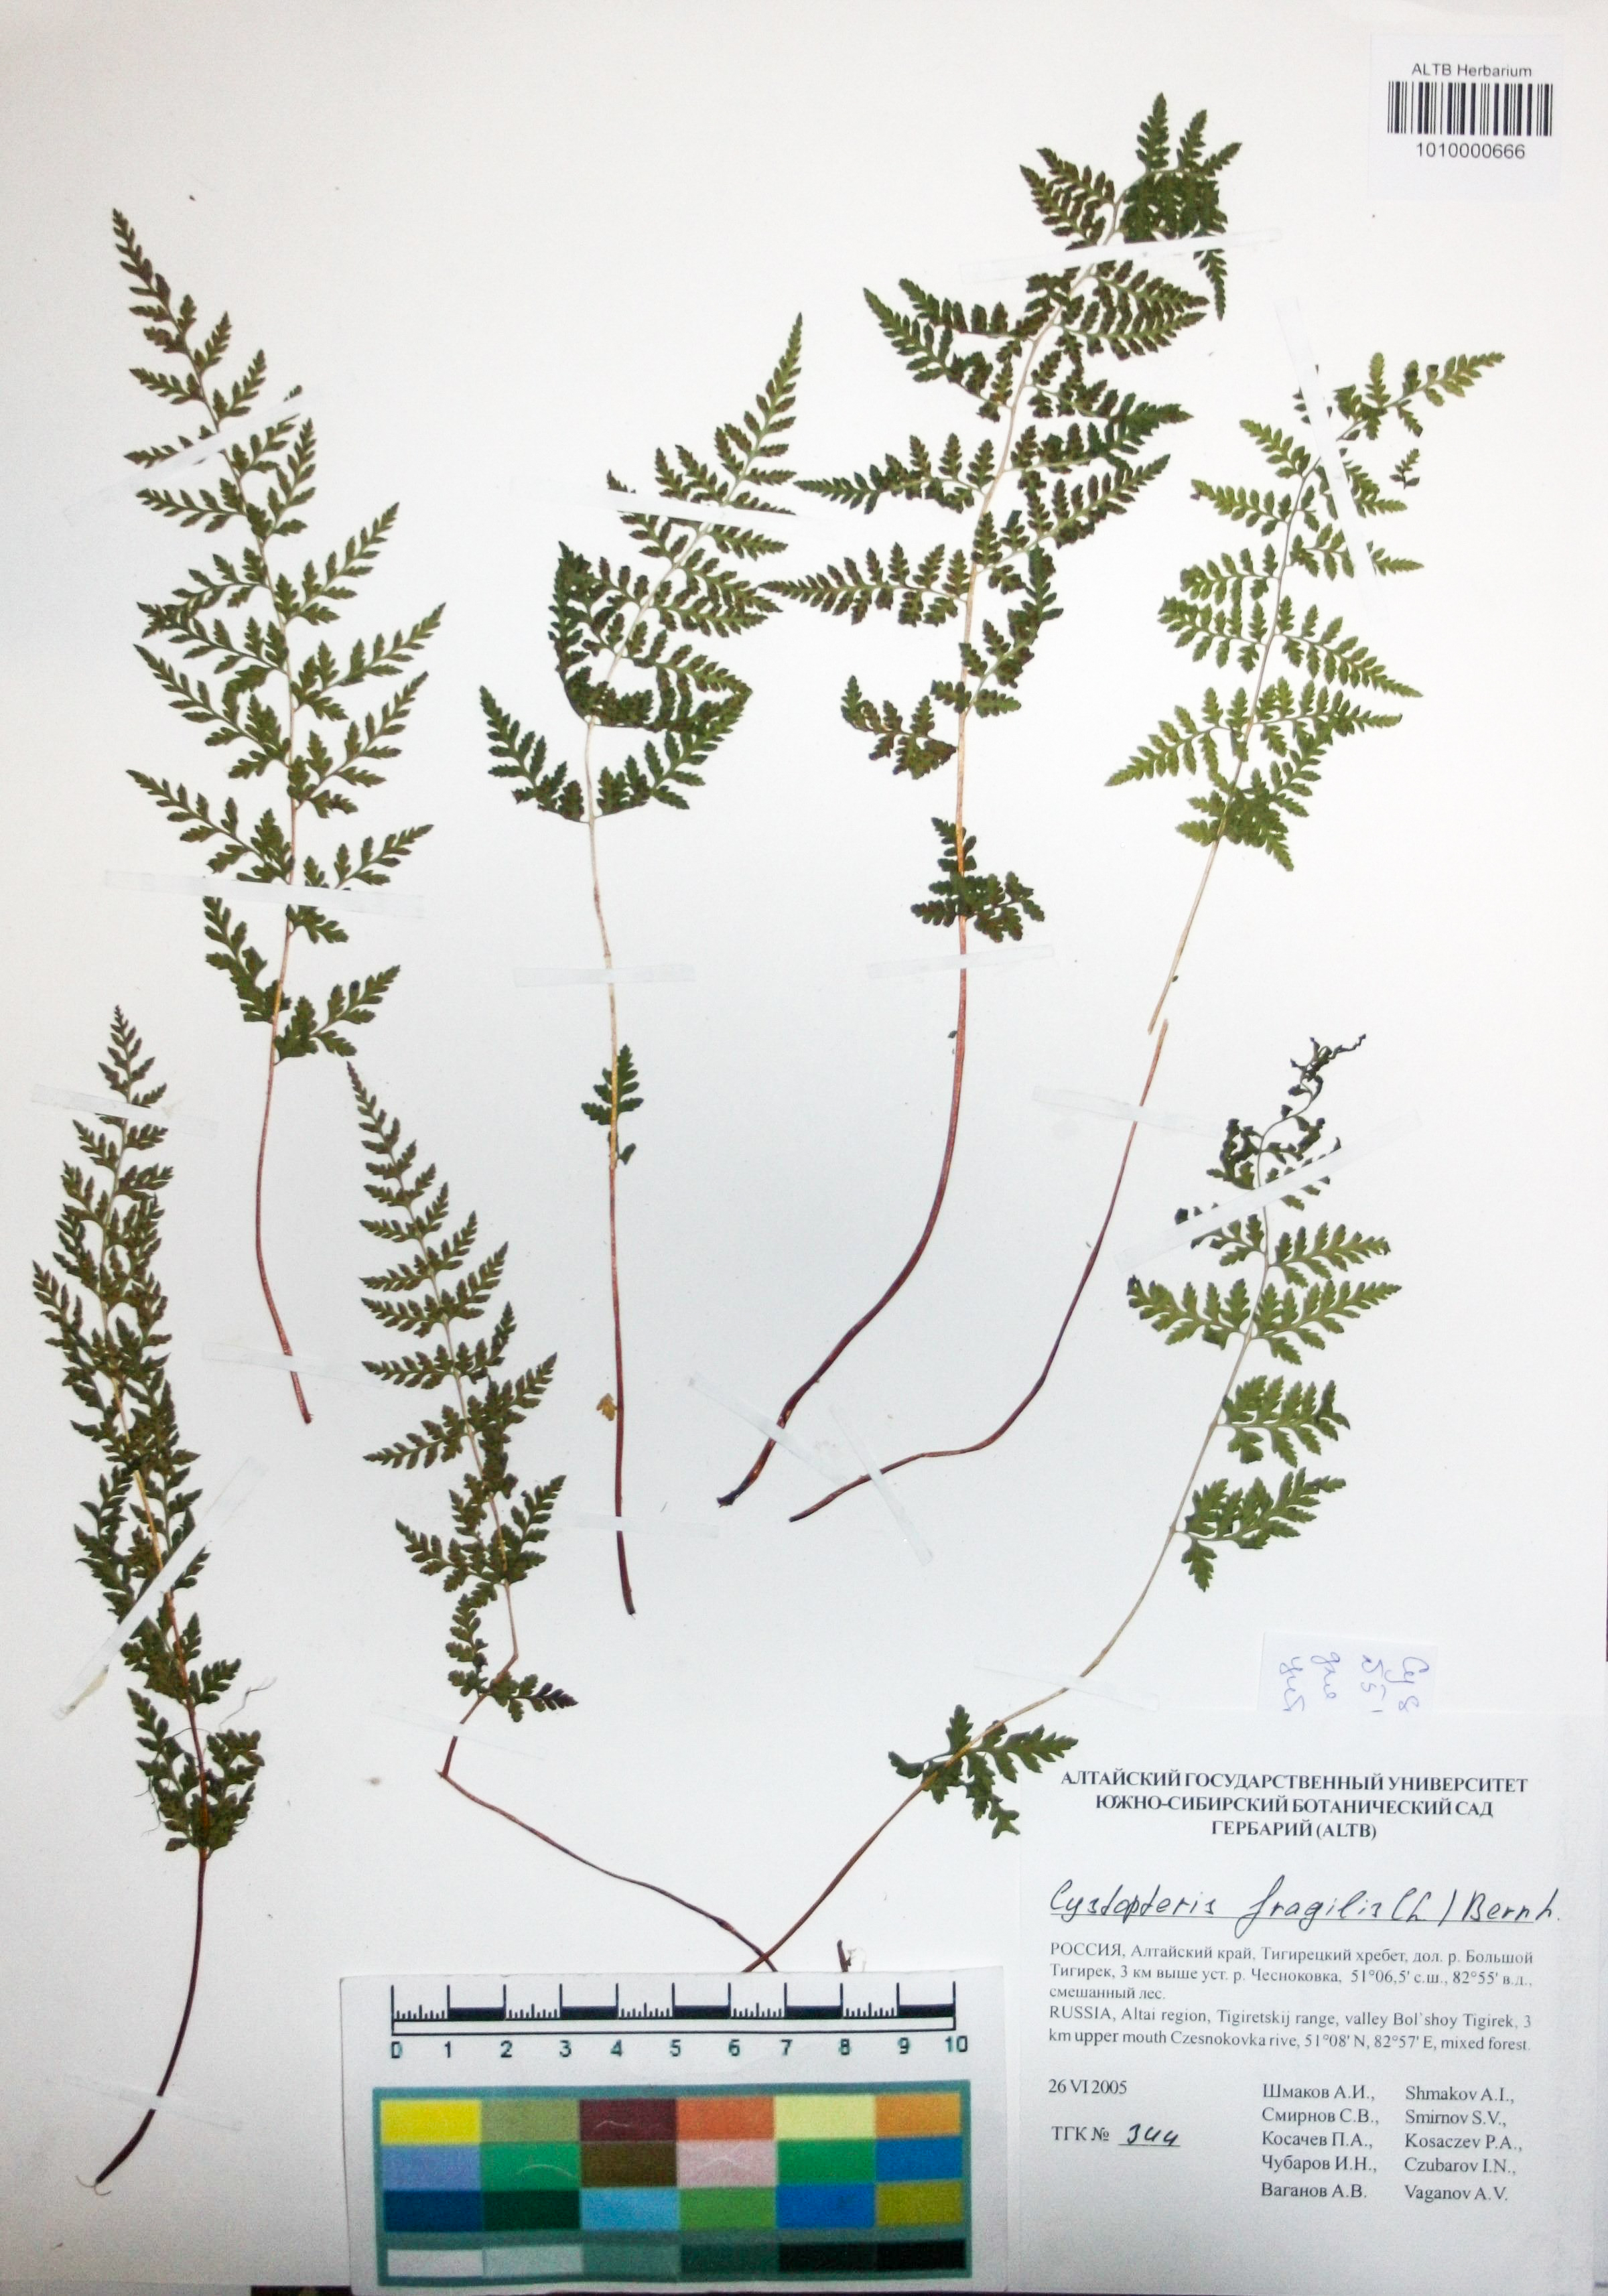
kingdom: Plantae
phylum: Tracheophyta
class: Polypodiopsida
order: Polypodiales
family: Cystopteridaceae
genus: Cystopteris
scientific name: Cystopteris fragilis
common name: Brittle bladder fern
